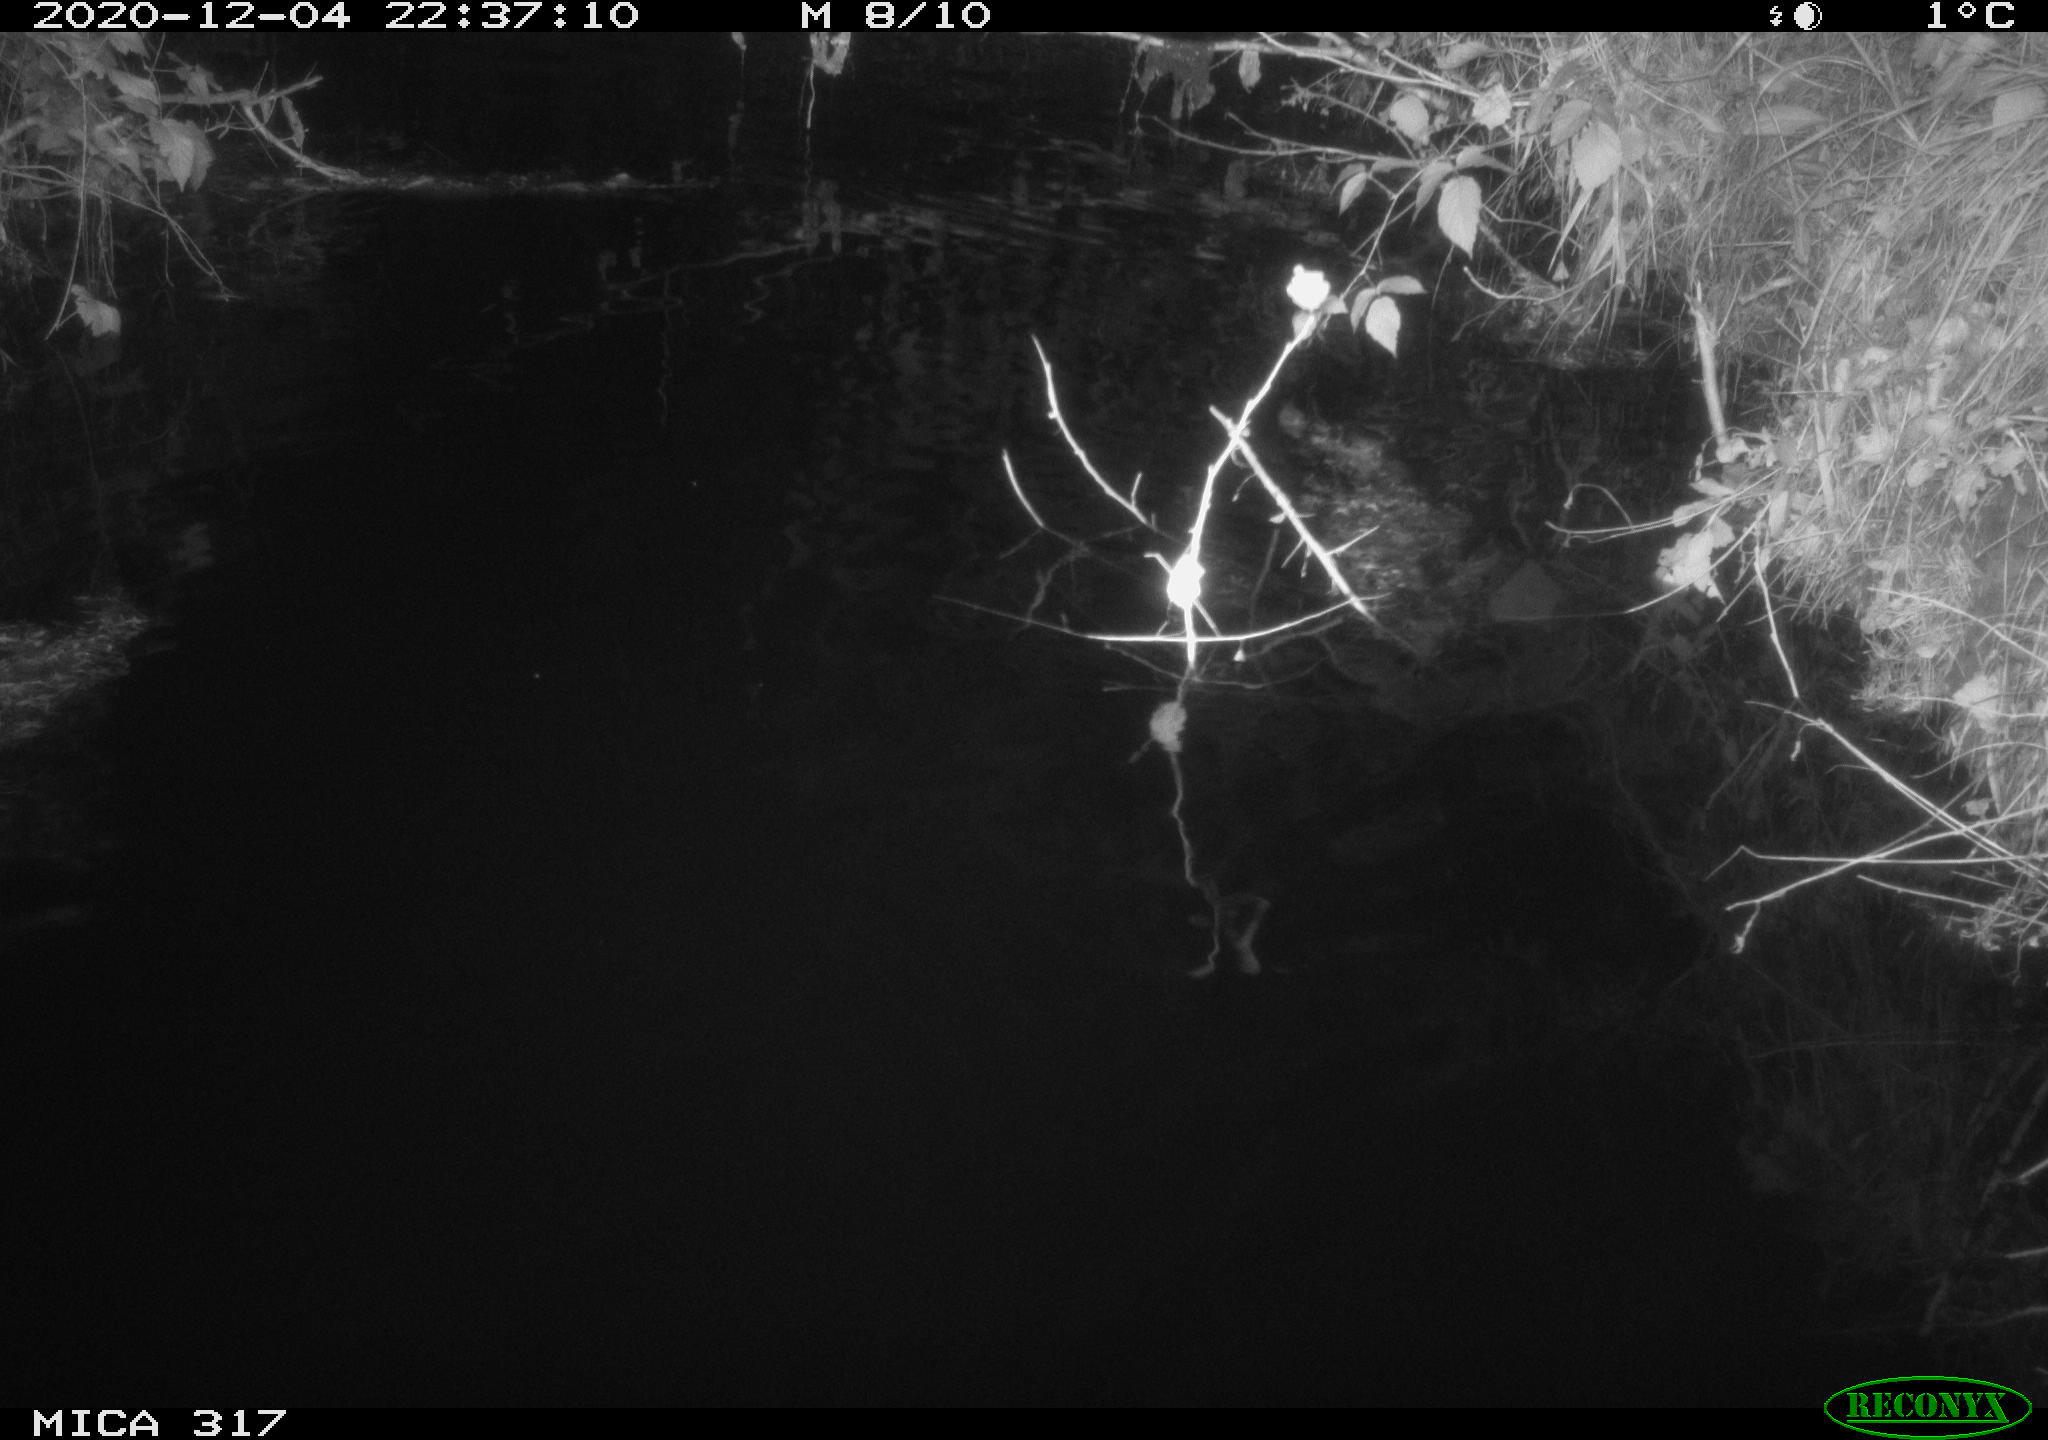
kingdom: Animalia
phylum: Chordata
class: Mammalia
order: Rodentia
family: Muridae
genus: Rattus
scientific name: Rattus norvegicus
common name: Brown rat
